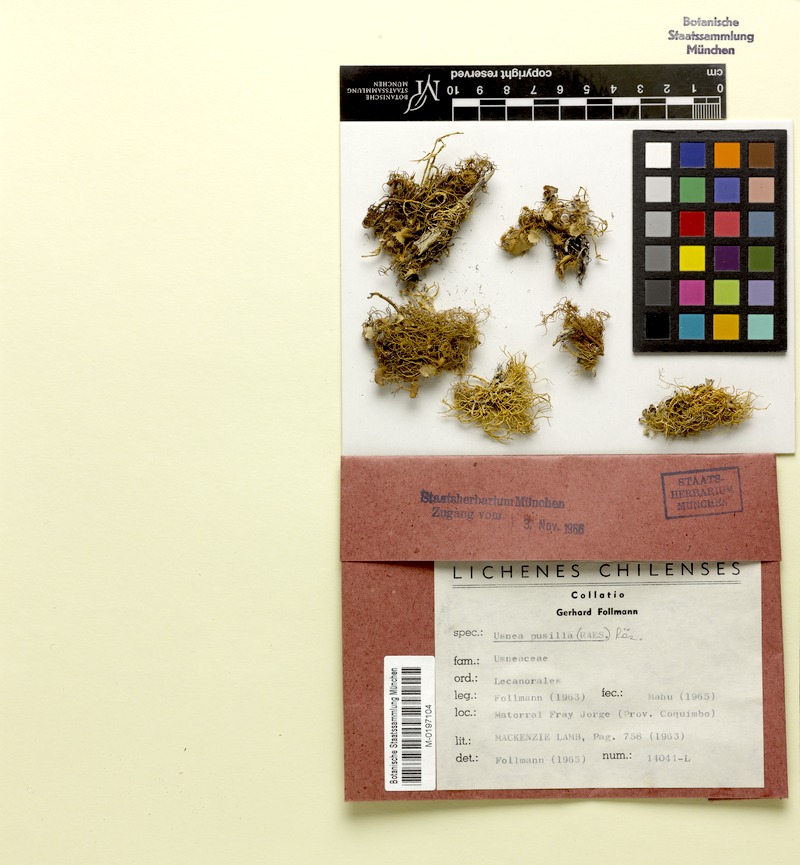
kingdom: Fungi
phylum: Ascomycota
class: Lecanoromycetes
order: Lecanorales
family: Parmeliaceae
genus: Usnea
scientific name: Usnea
